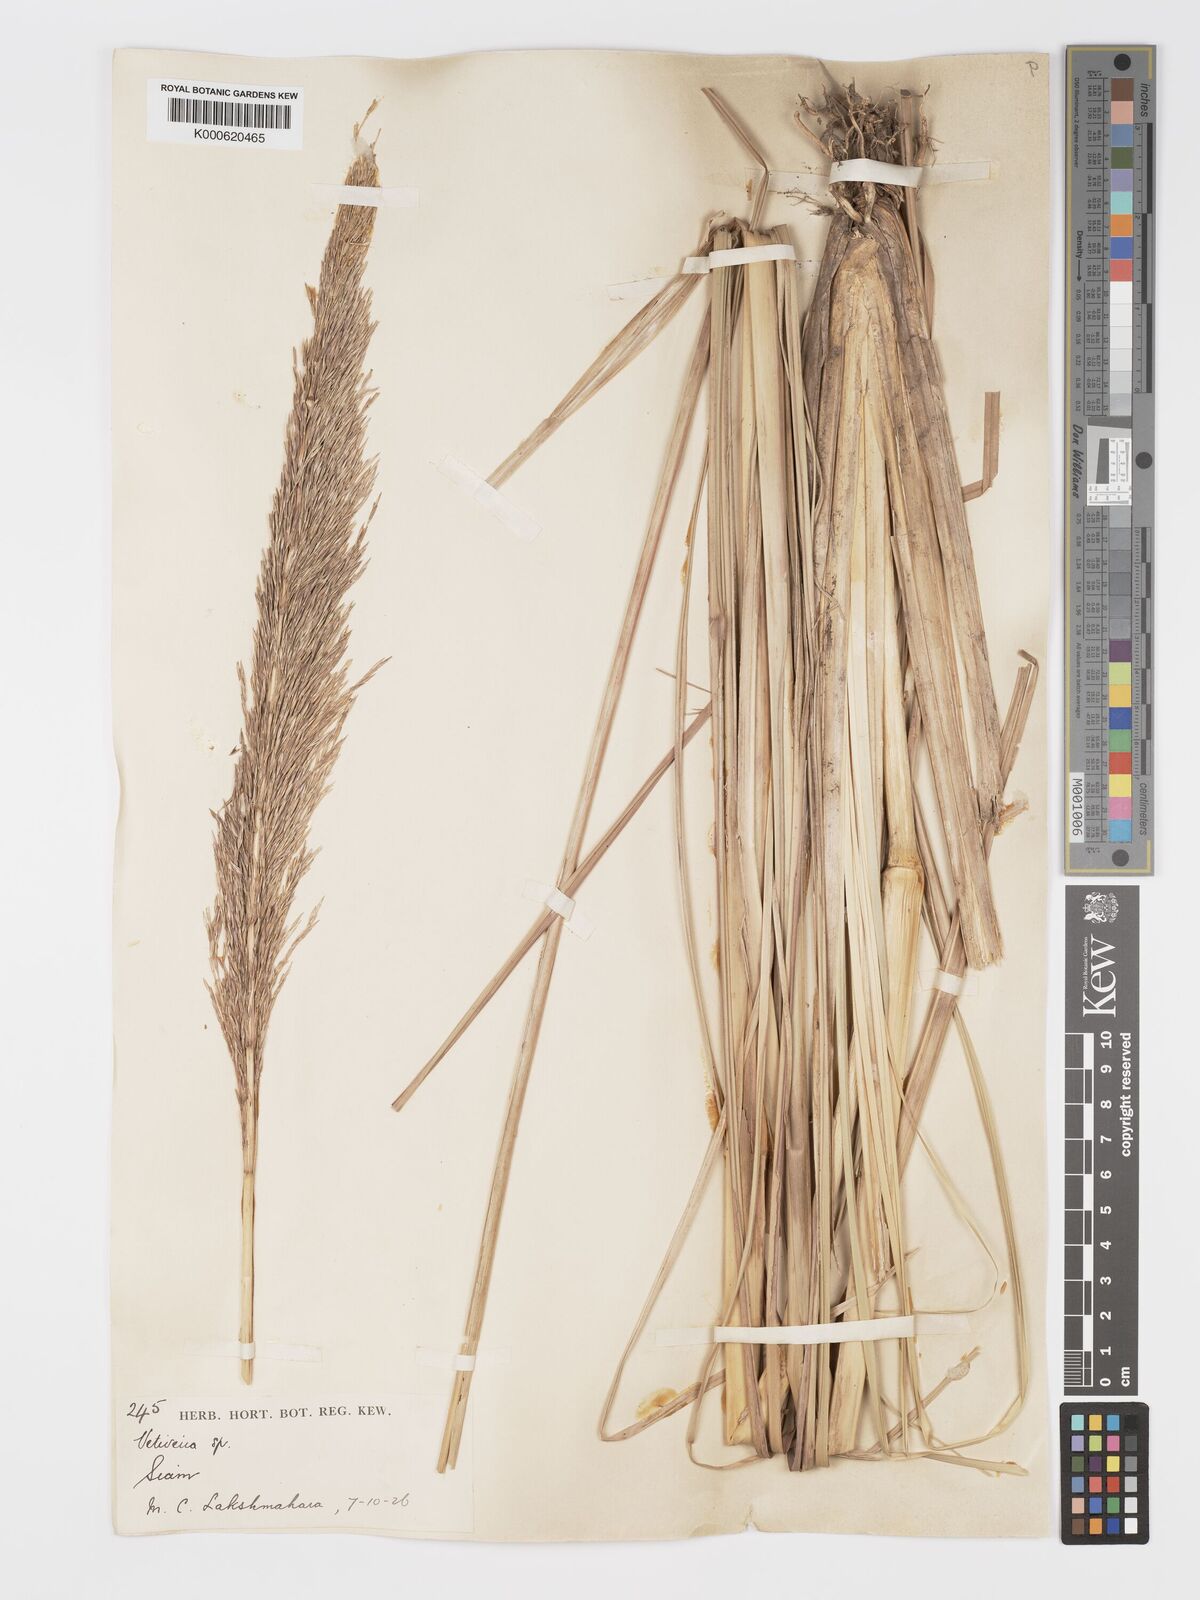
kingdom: Plantae
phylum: Tracheophyta
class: Liliopsida
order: Poales
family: Poaceae
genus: Chrysopogon
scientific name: Chrysopogon zizanioides
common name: False beardgrass
